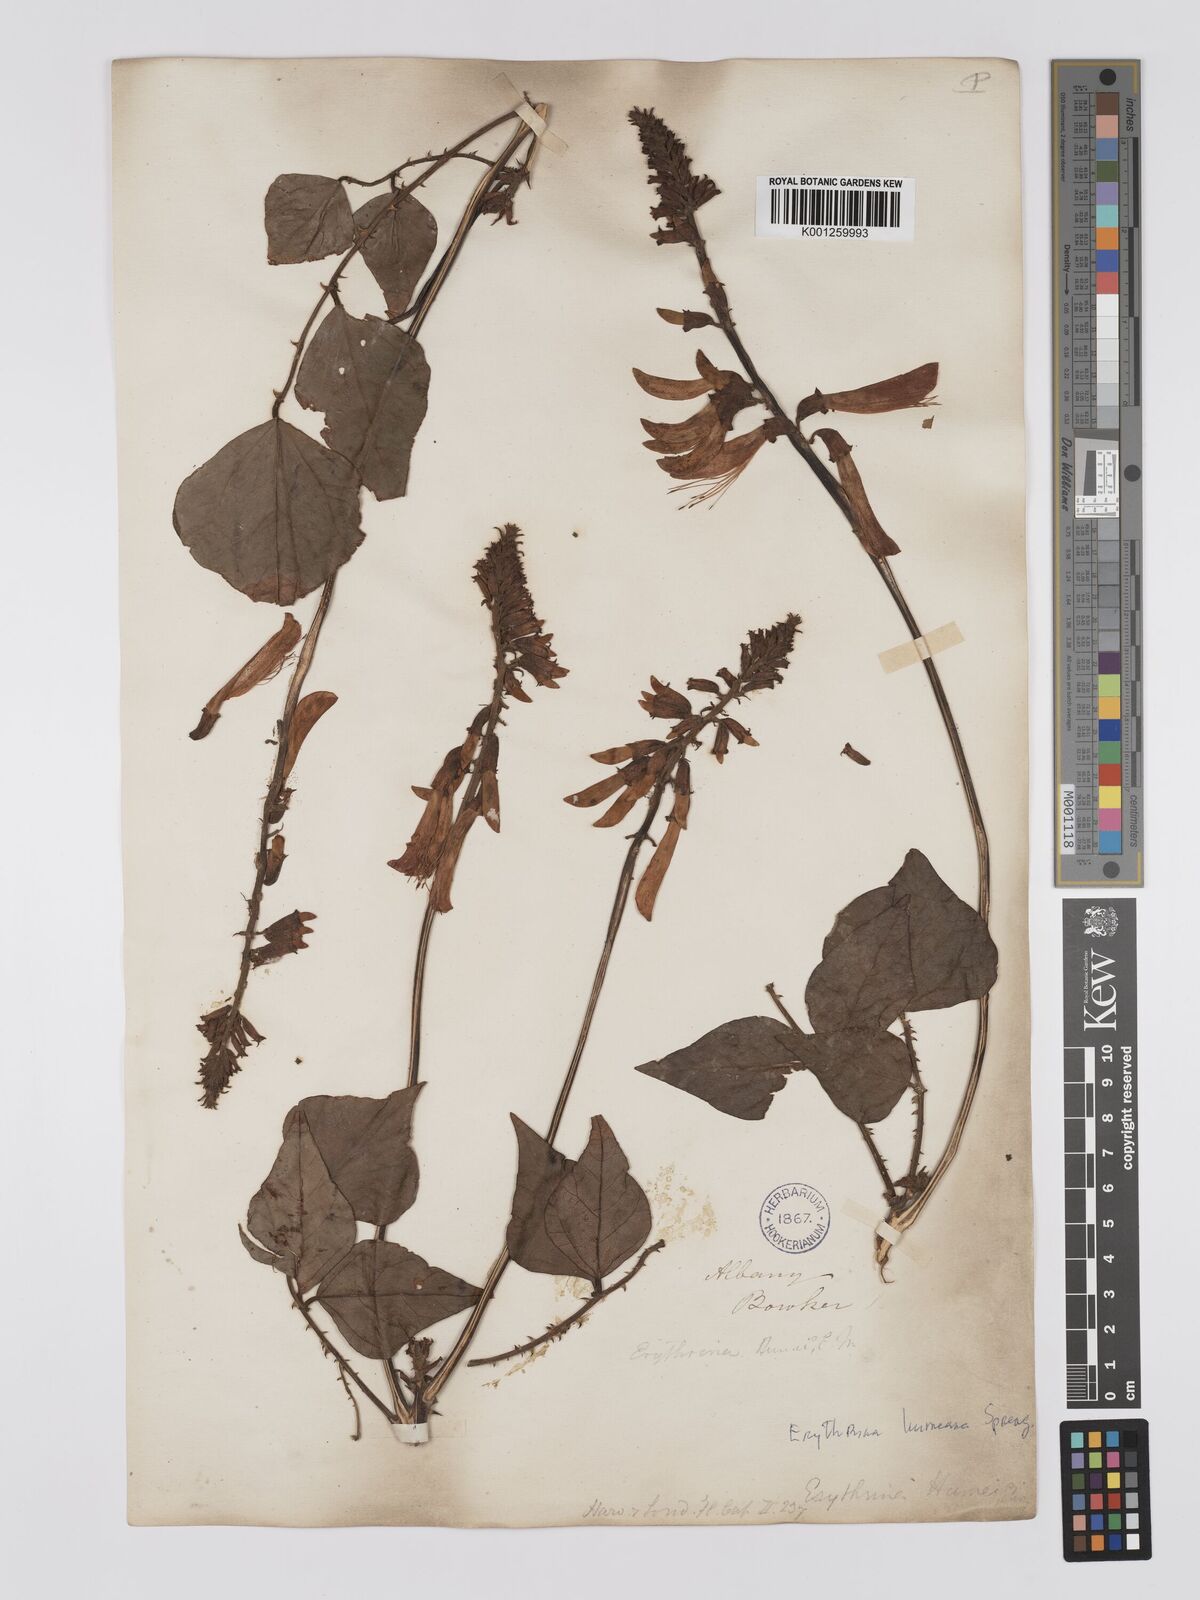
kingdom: Plantae
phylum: Tracheophyta
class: Magnoliopsida
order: Fabales
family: Fabaceae
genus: Erythrina
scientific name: Erythrina humeana
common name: Dwarf coral tree
